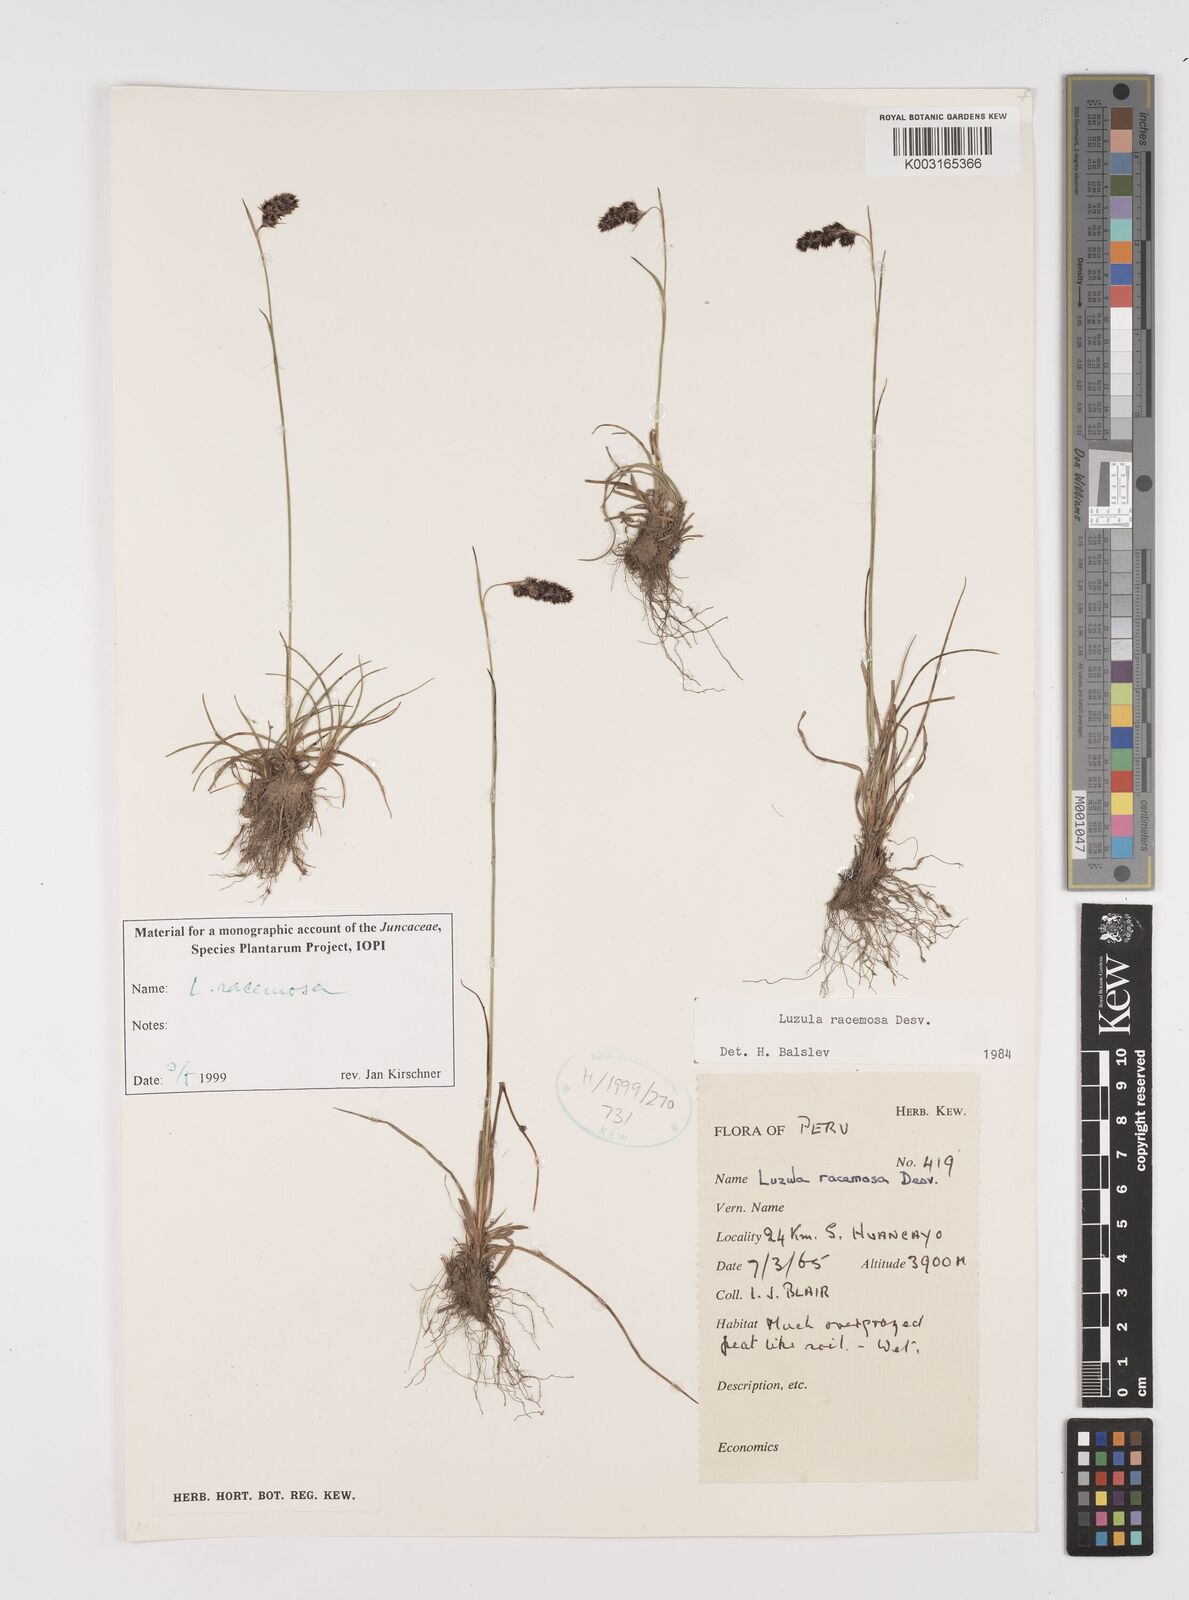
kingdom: Plantae
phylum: Tracheophyta
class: Liliopsida
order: Poales
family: Juncaceae
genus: Luzula
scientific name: Luzula racemosa
